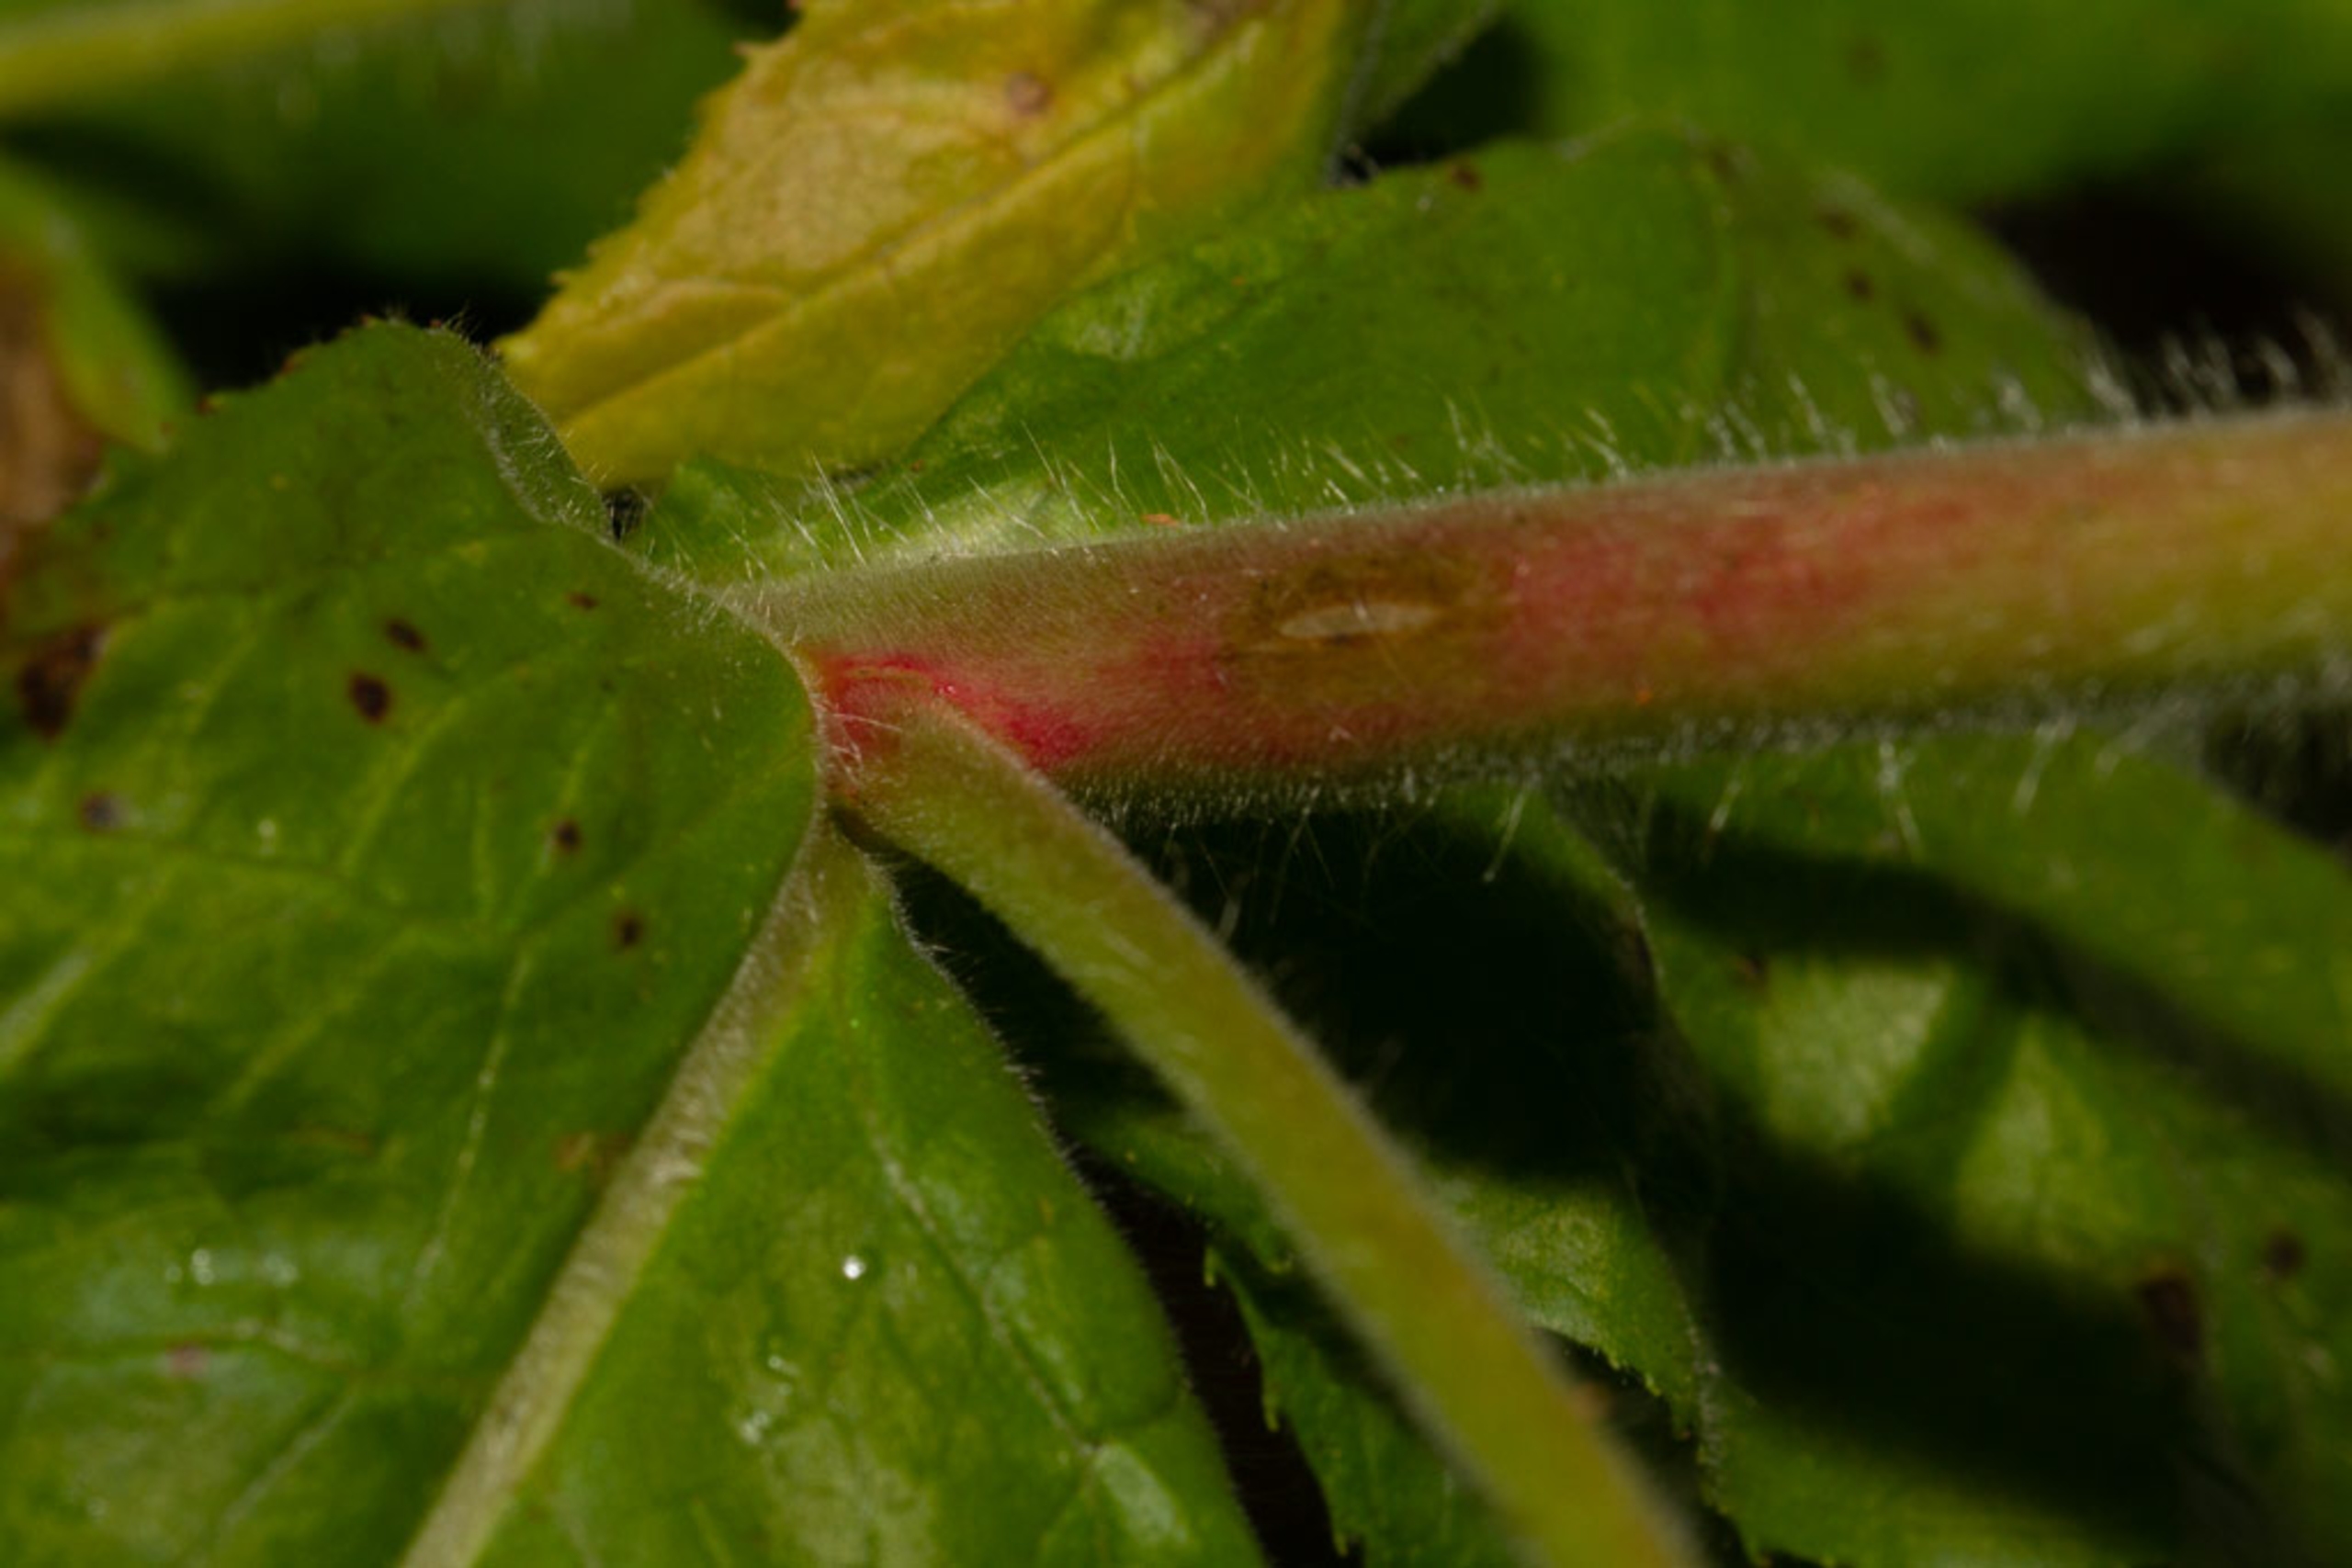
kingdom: Plantae
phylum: Tracheophyta
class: Magnoliopsida
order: Myrtales
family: Onagraceae
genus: Epilobium
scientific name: Epilobium hirsutum
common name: Lådden dueurt
